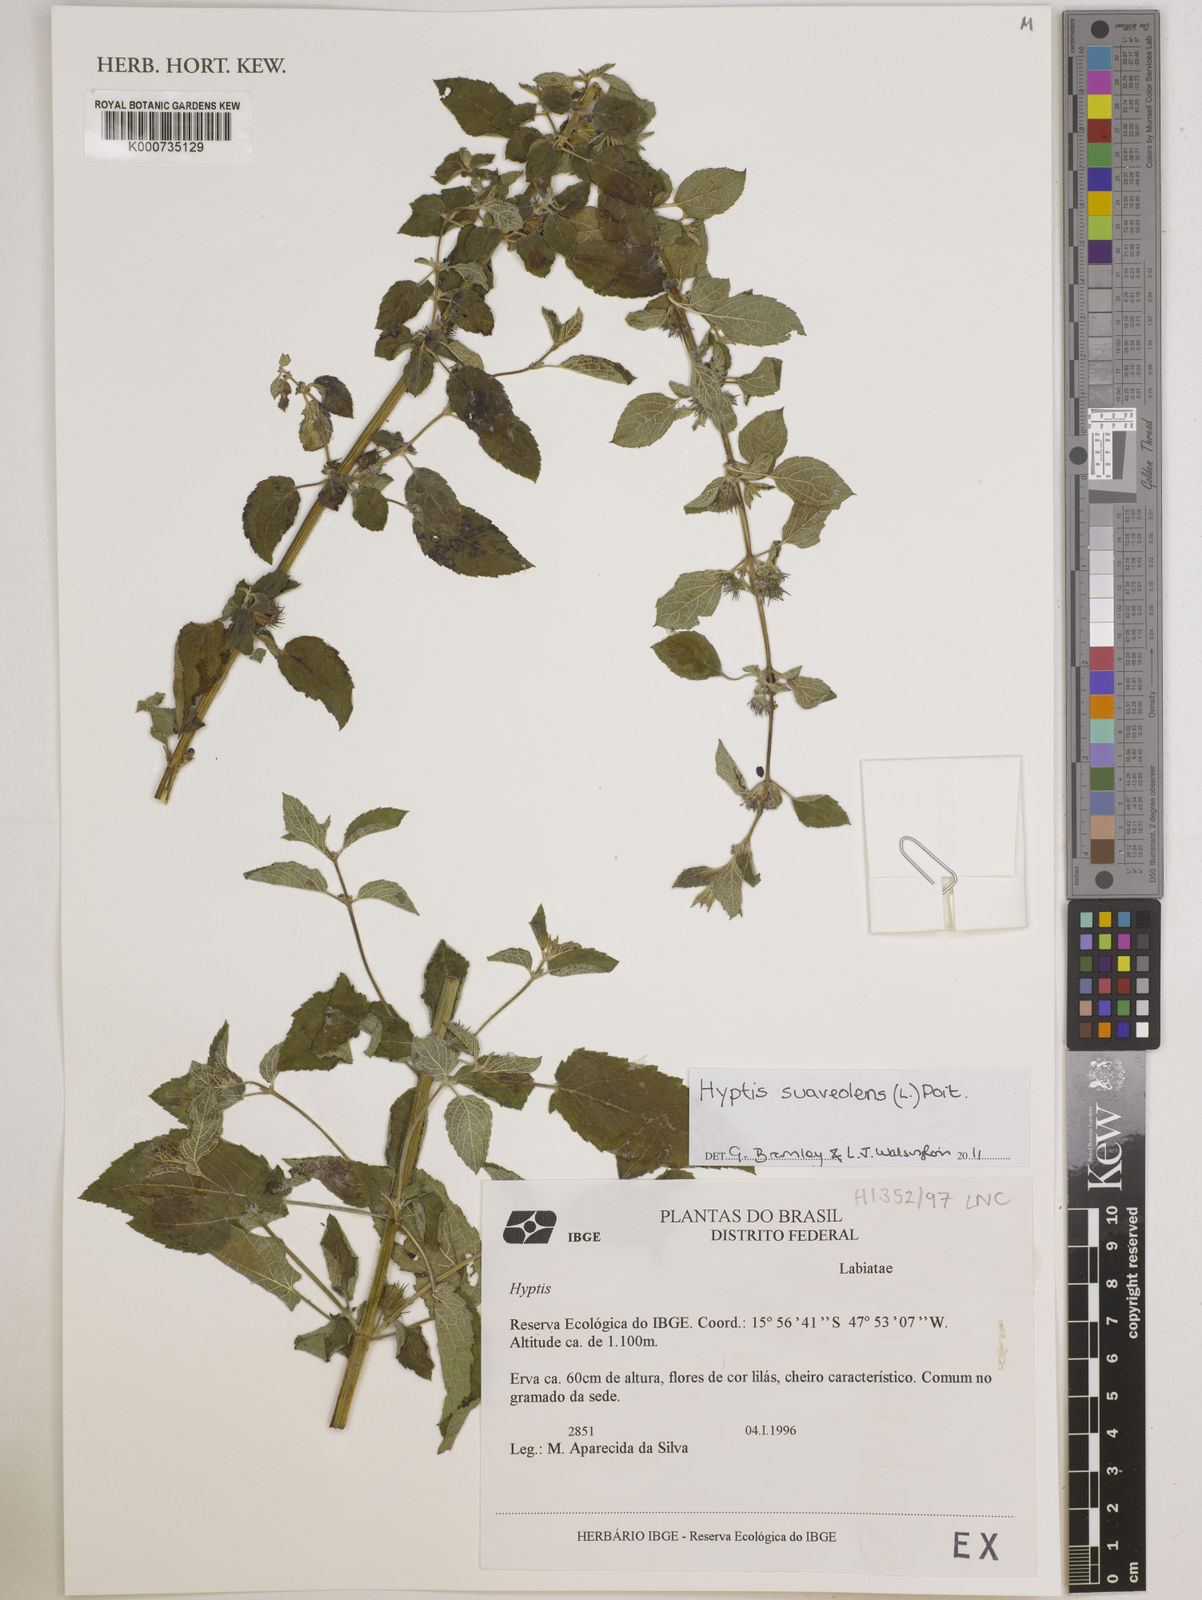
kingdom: Plantae
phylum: Tracheophyta
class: Magnoliopsida
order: Lamiales
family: Lamiaceae
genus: Mesosphaerum
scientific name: Mesosphaerum suaveolens
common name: Pignut
